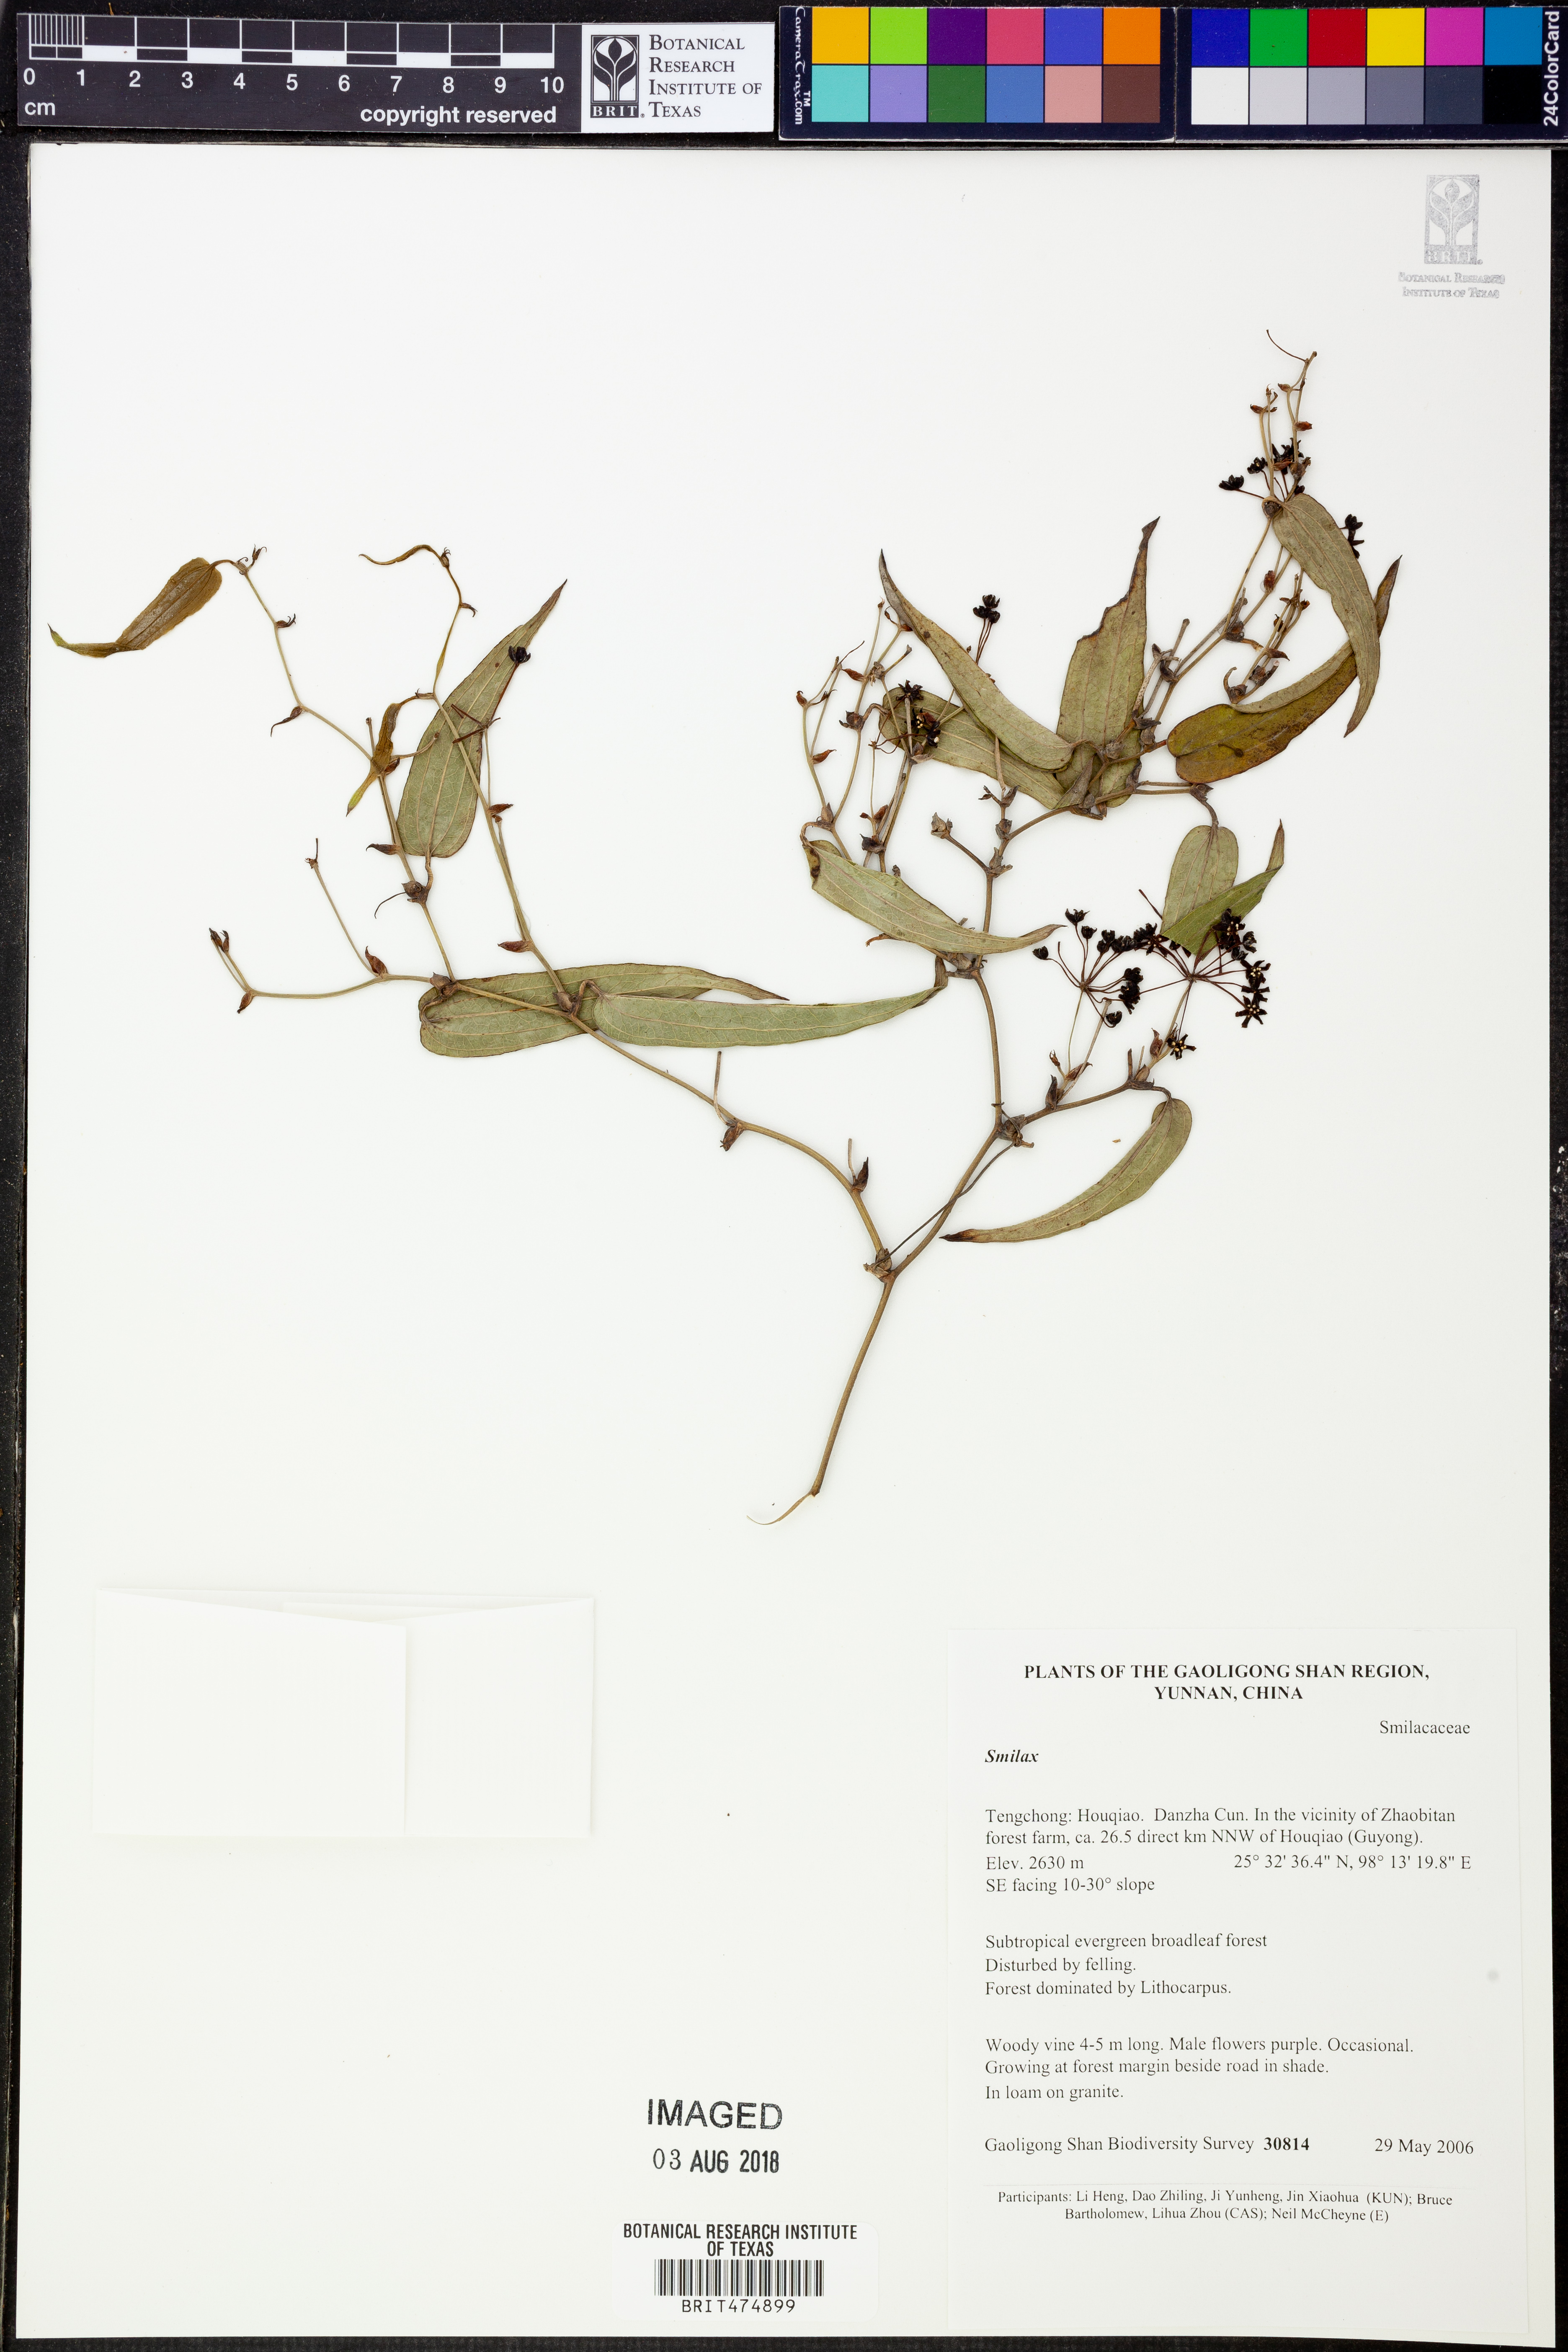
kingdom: Plantae
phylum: Tracheophyta
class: Liliopsida
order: Liliales
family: Smilacaceae
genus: Smilax
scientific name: Smilax
